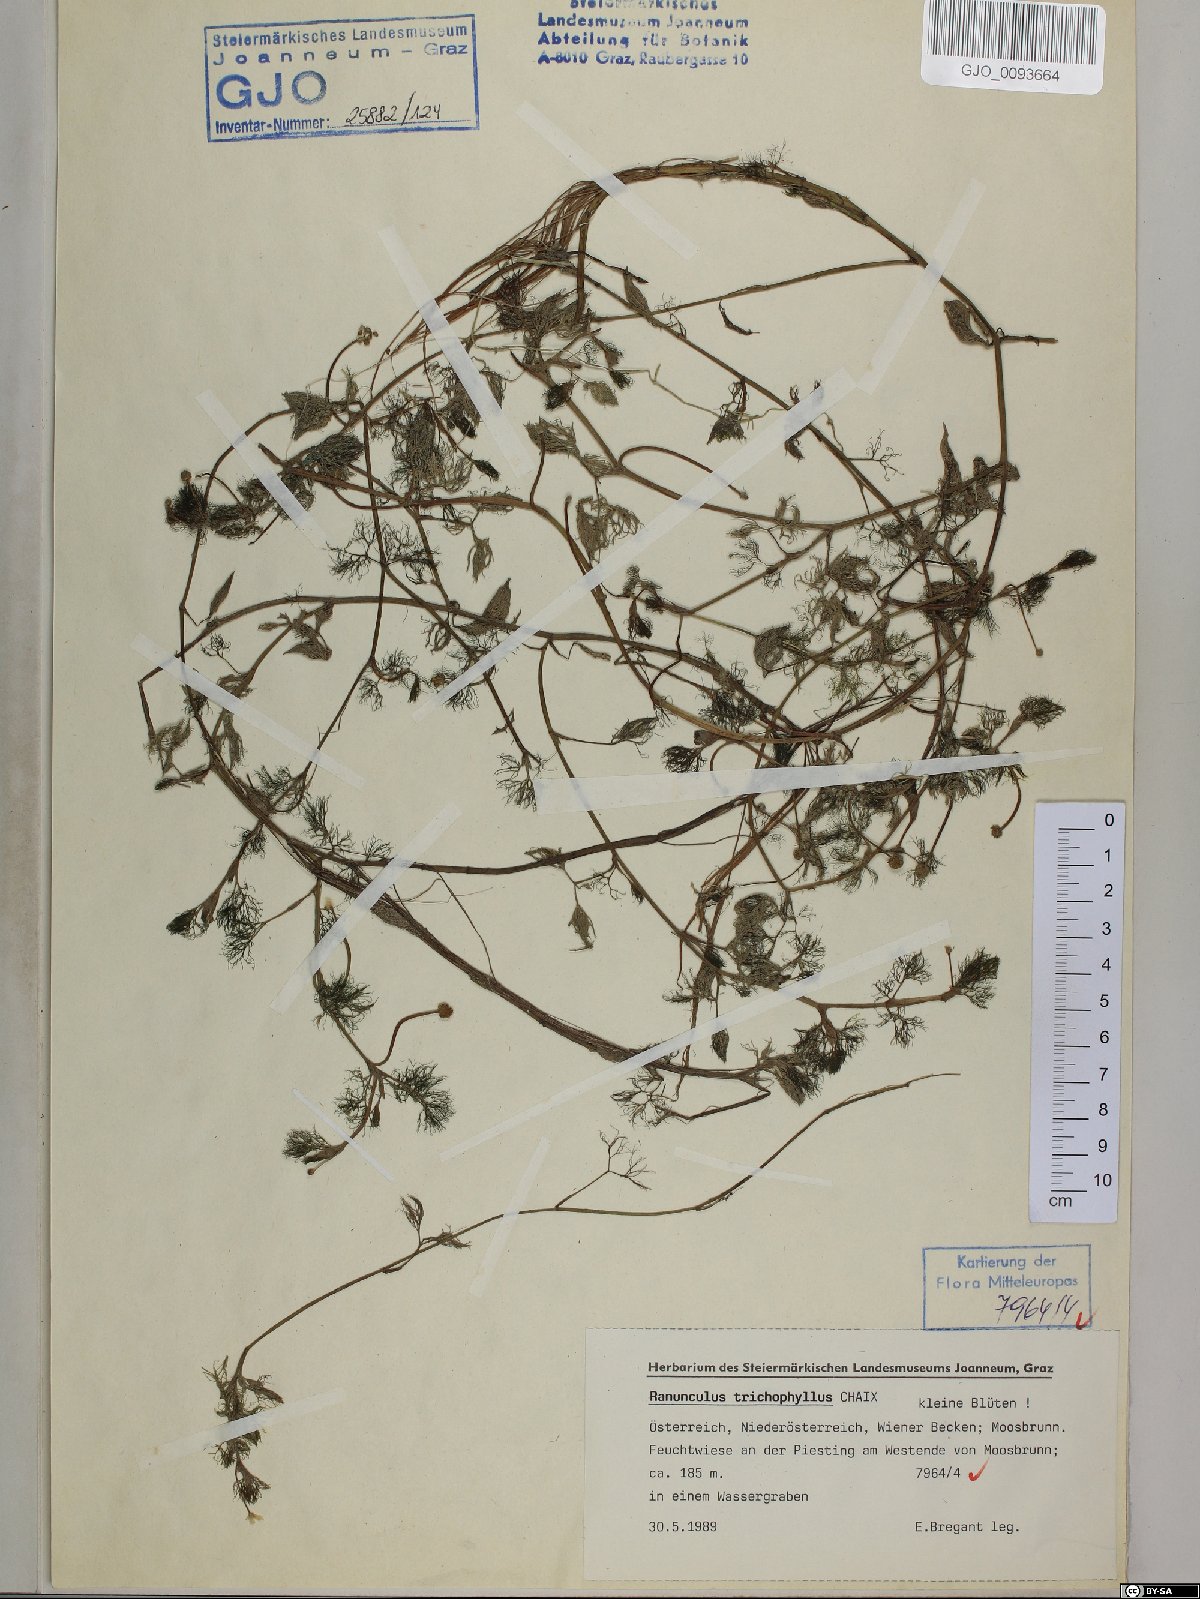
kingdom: Plantae
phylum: Tracheophyta
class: Magnoliopsida
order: Ranunculales
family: Ranunculaceae
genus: Ranunculus
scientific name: Ranunculus trichophyllus
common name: Thread-leaved water-crowfoot
